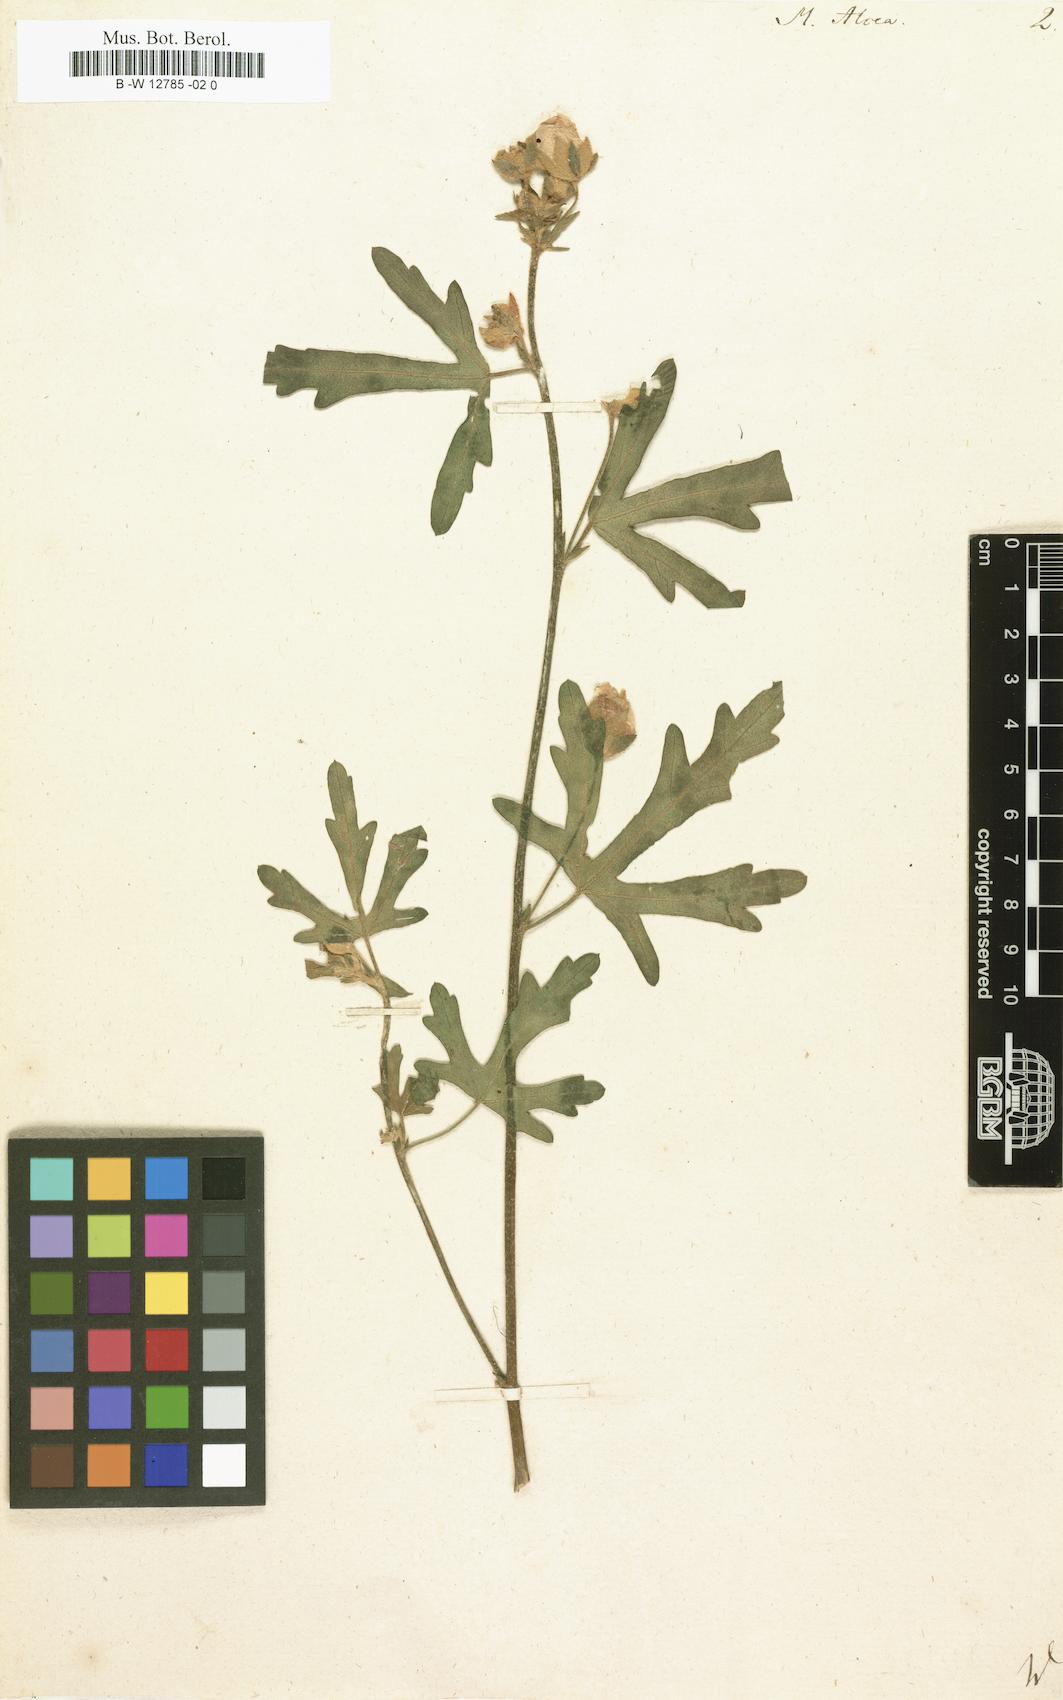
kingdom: Plantae
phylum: Tracheophyta
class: Magnoliopsida
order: Malvales
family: Malvaceae
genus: Malva
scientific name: Malva alcea
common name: Greater musk-mallow
